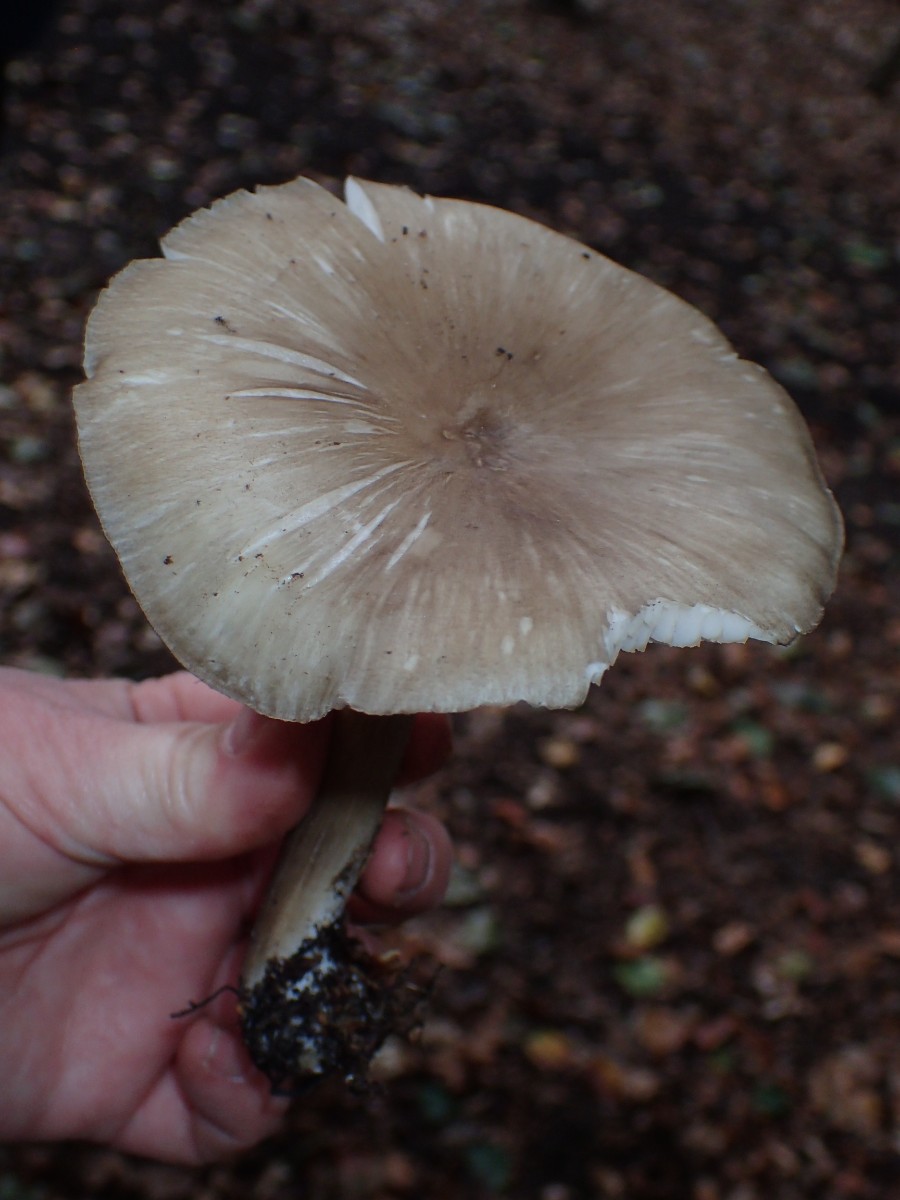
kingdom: Fungi
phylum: Basidiomycota
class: Agaricomycetes
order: Agaricales
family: Tricholomataceae
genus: Megacollybia
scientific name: Megacollybia platyphylla
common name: bredbladet væbnerhat
